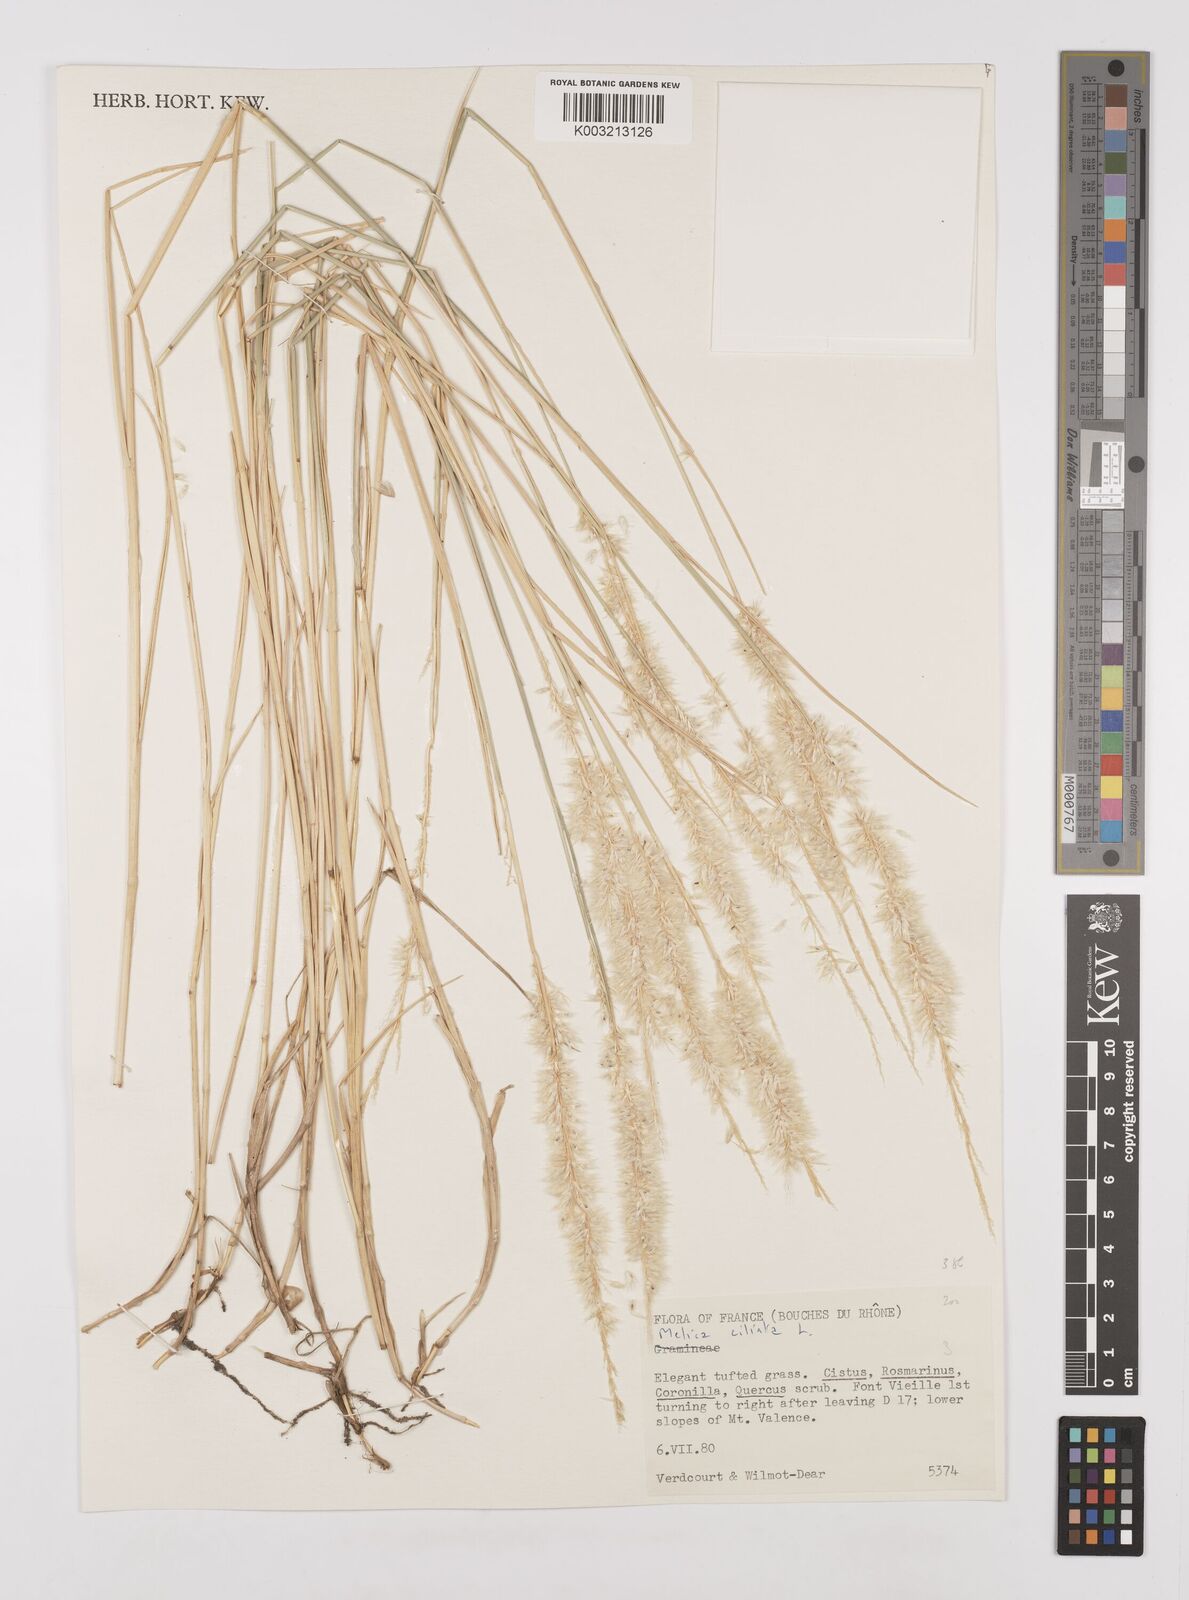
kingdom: Plantae
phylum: Tracheophyta
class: Liliopsida
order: Poales
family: Poaceae
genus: Melica
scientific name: Melica ciliata
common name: Hairy melicgrass
